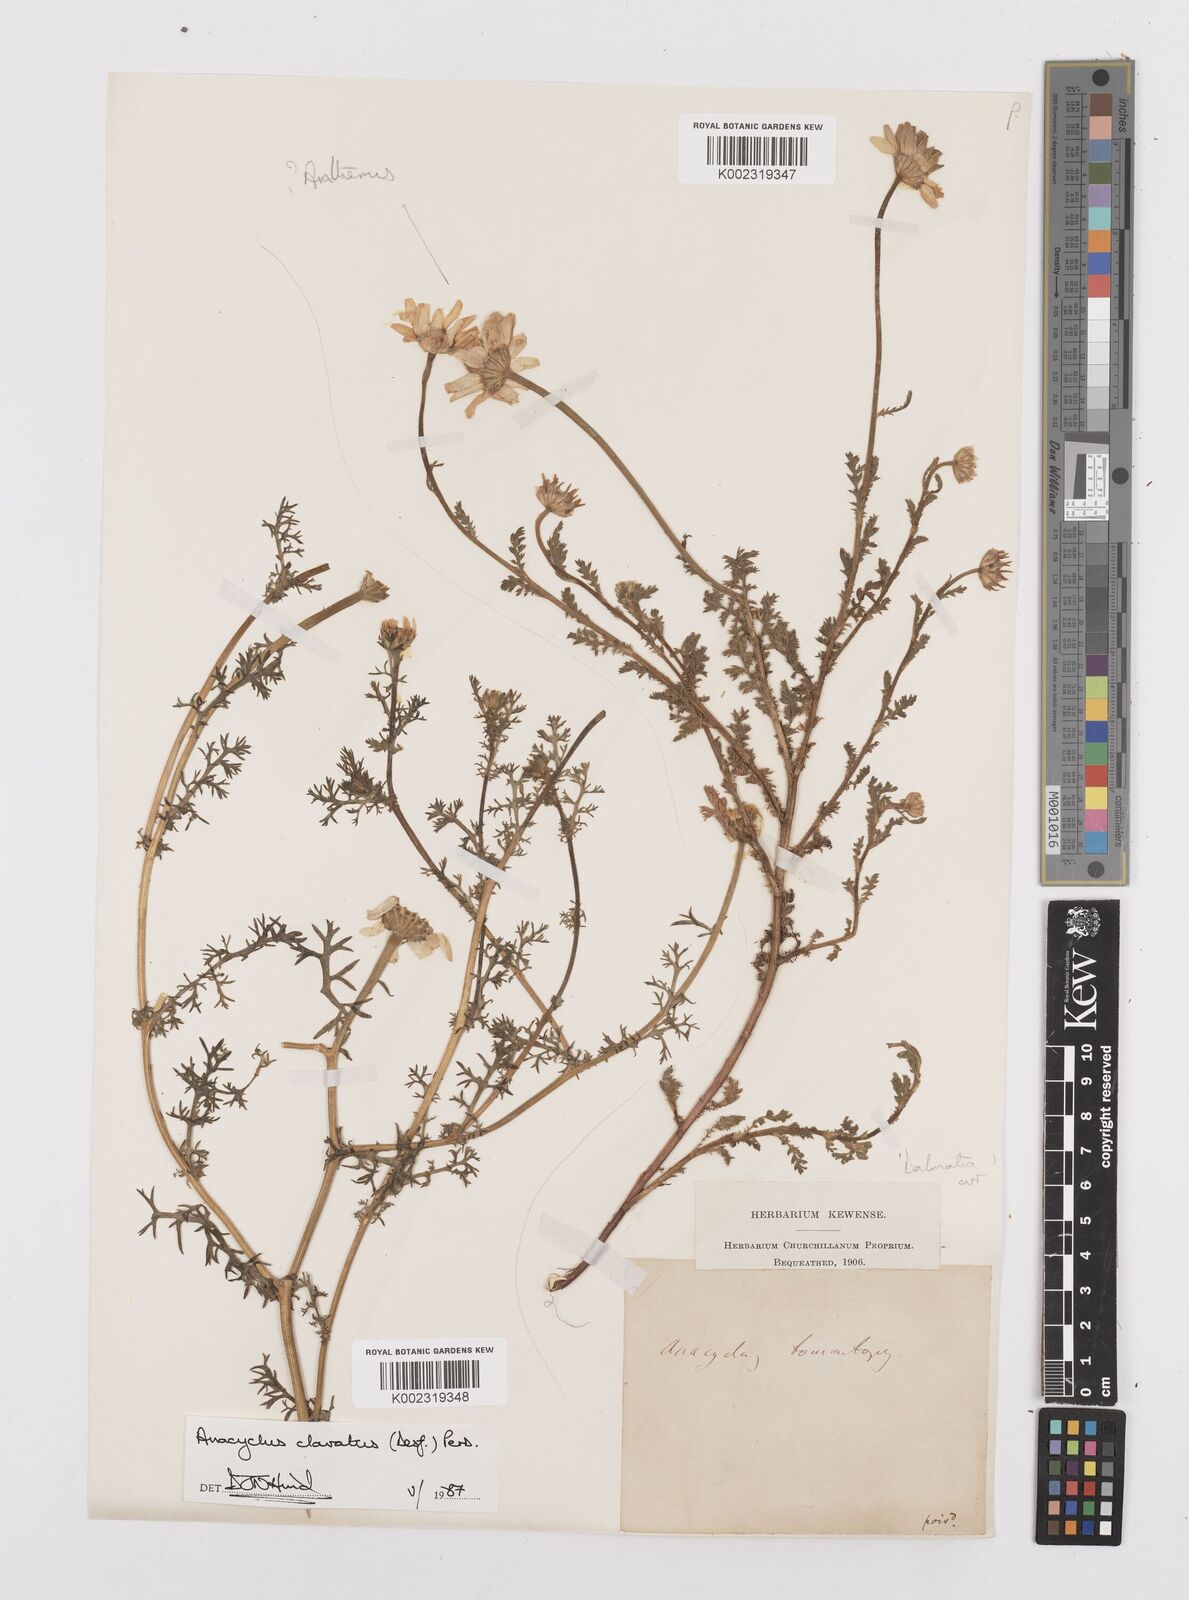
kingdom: Plantae
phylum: Tracheophyta
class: Magnoliopsida
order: Asterales
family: Asteraceae
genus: Anacyclus
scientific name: Anacyclus clavatus
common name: Whitebuttons
